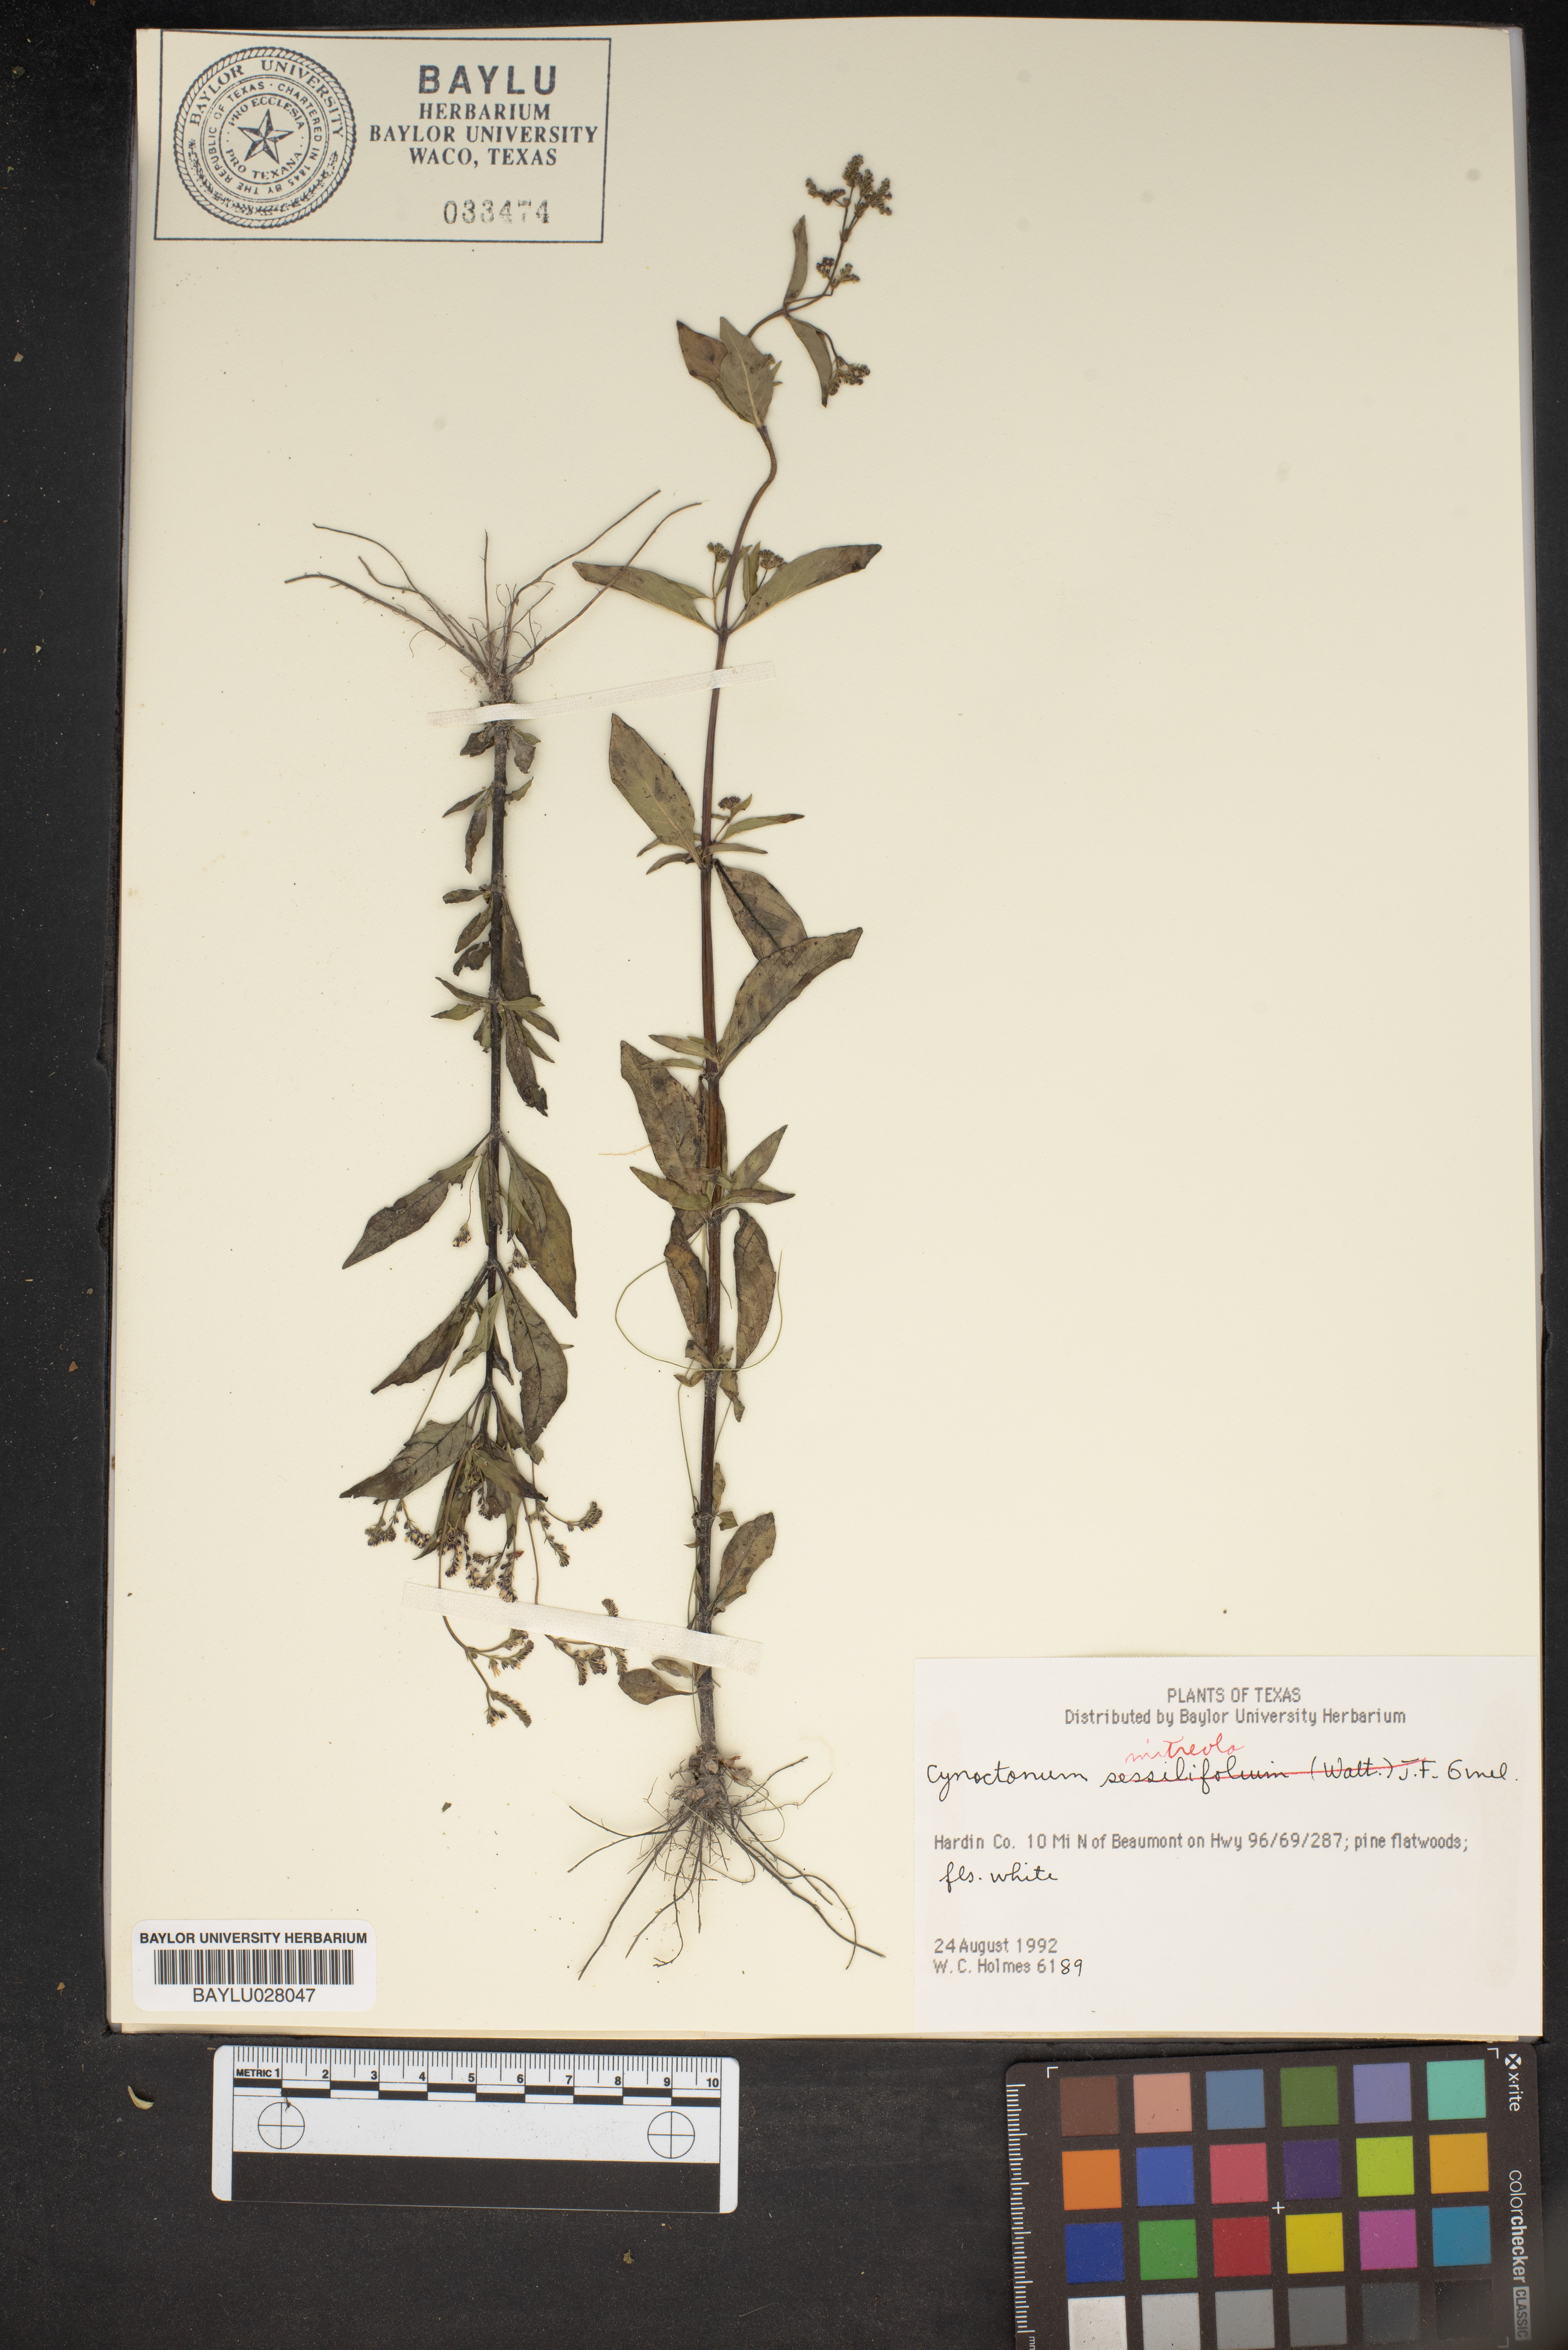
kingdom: Plantae
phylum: Tracheophyta
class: Magnoliopsida
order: Gentianales
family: Loganiaceae
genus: Mitreola
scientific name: Mitreola petiolata
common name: Lax hornpod
